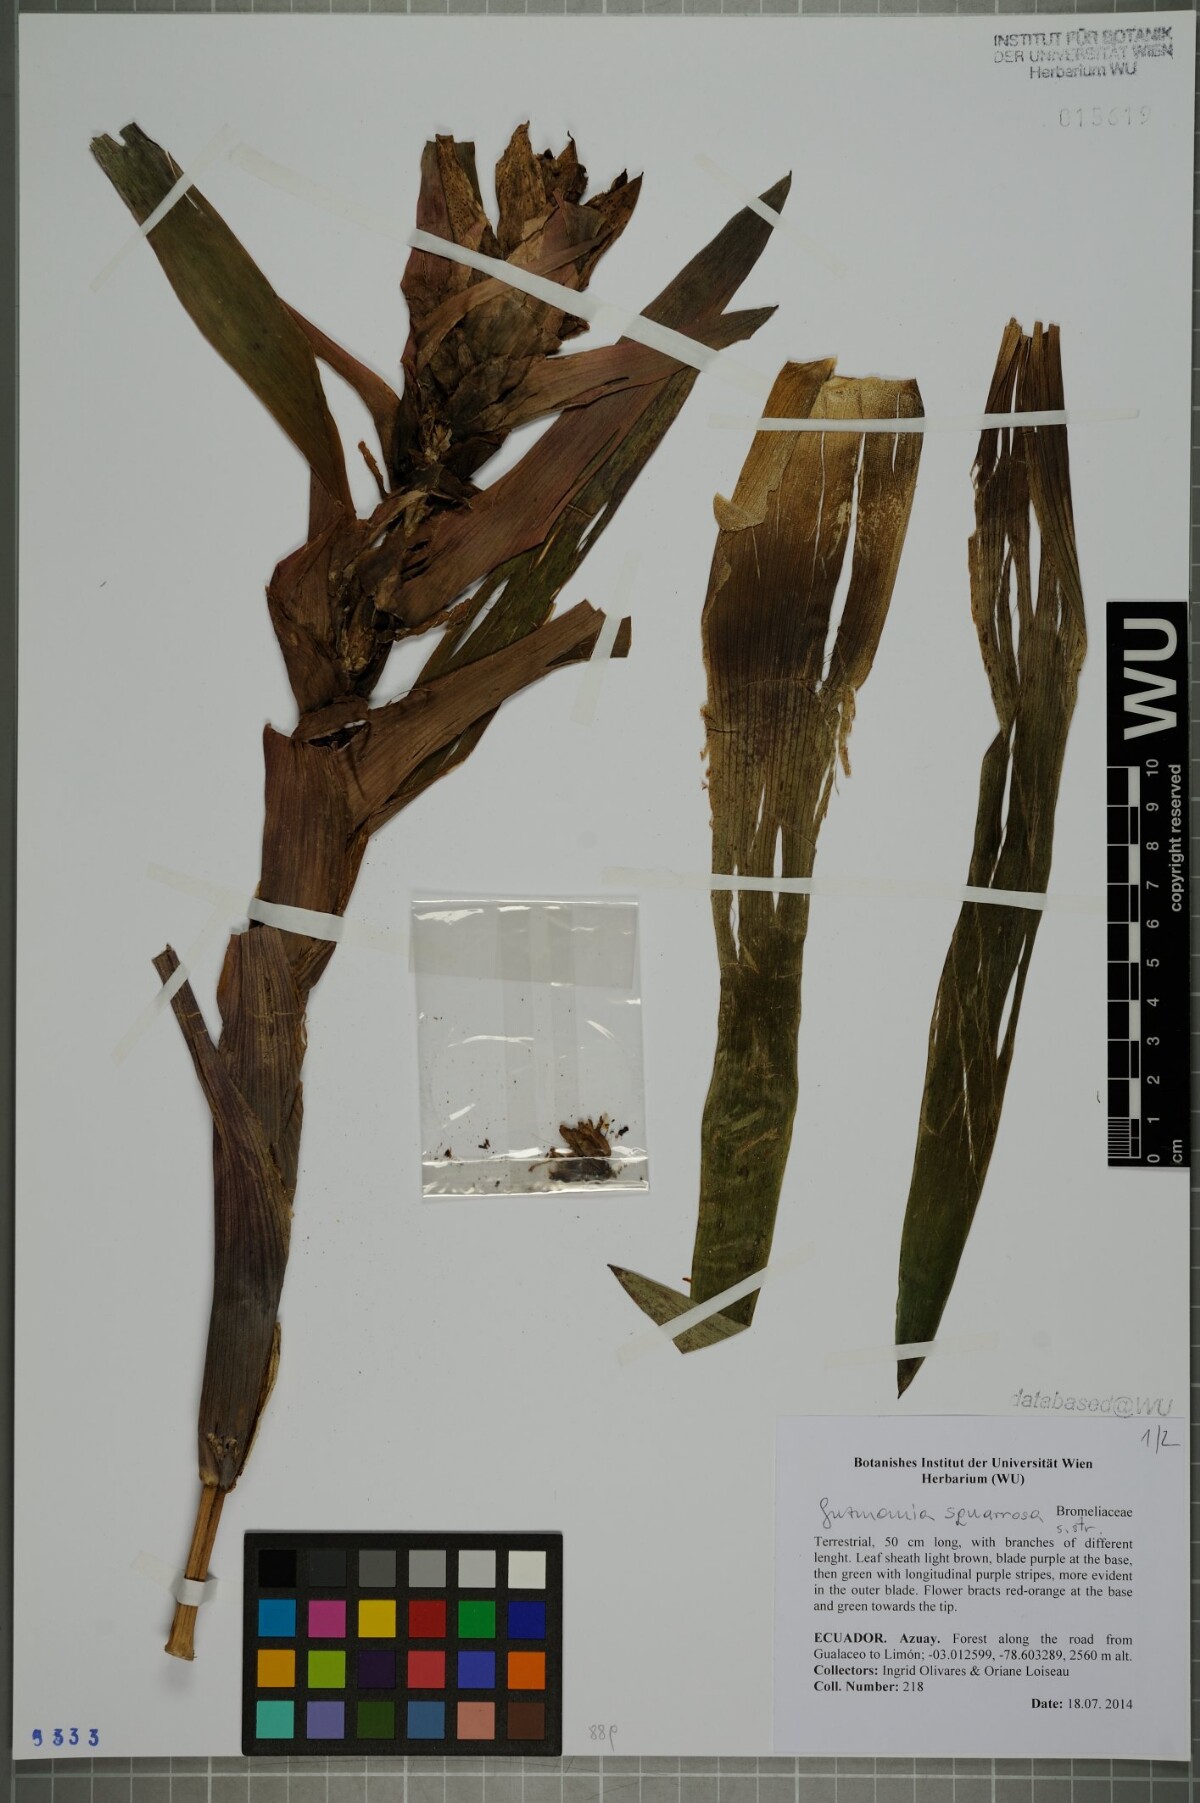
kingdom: Plantae
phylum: Tracheophyta
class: Liliopsida
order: Poales
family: Bromeliaceae
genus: Guzmania
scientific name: Guzmania squarrosa
